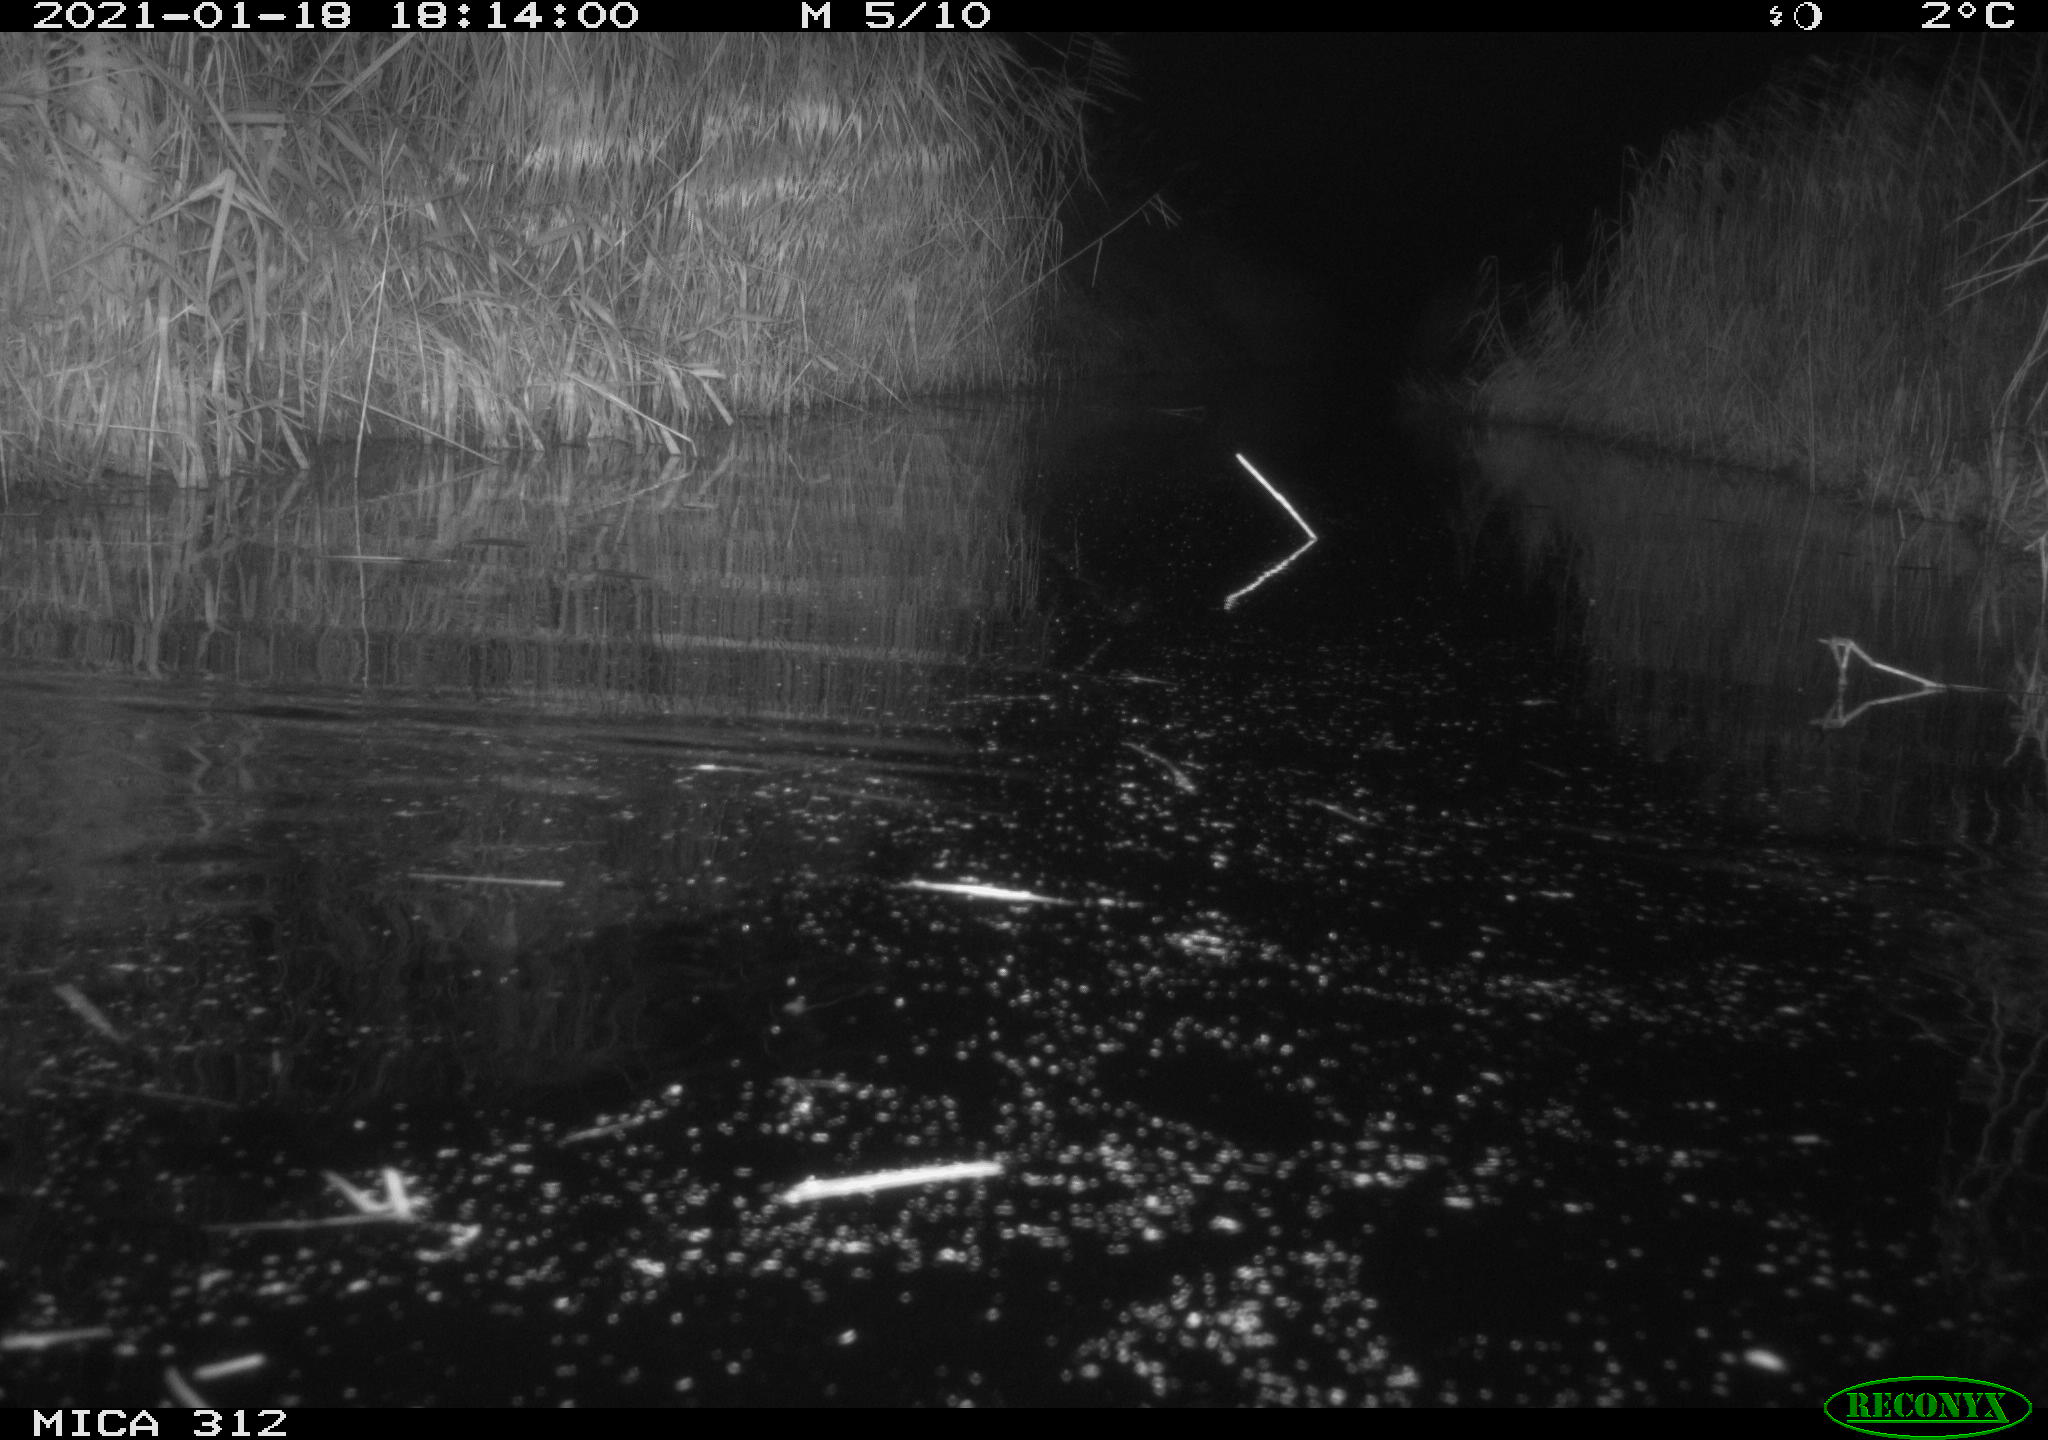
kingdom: Animalia
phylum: Chordata
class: Mammalia
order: Rodentia
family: Muridae
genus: Rattus
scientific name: Rattus norvegicus
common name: Brown rat
